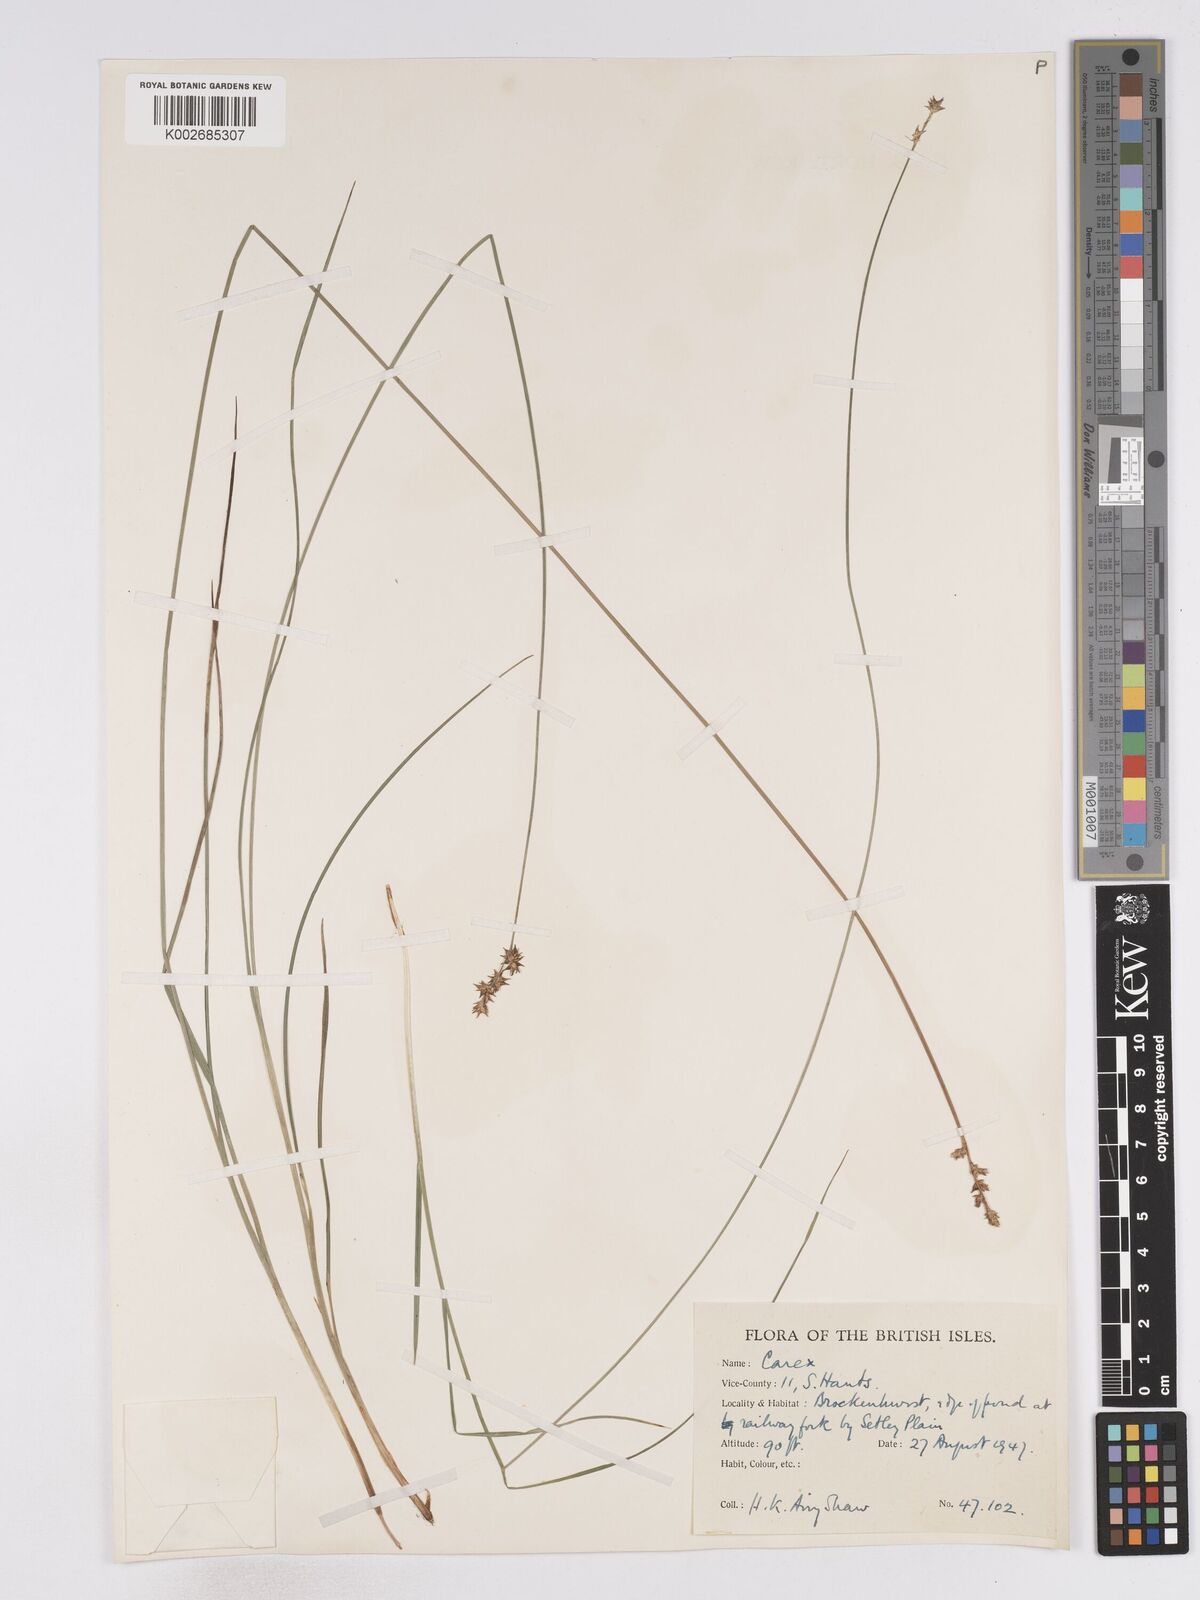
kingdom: Plantae
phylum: Tracheophyta
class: Liliopsida
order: Poales
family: Cyperaceae
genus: Carex
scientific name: Carex echinata
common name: Star sedge
